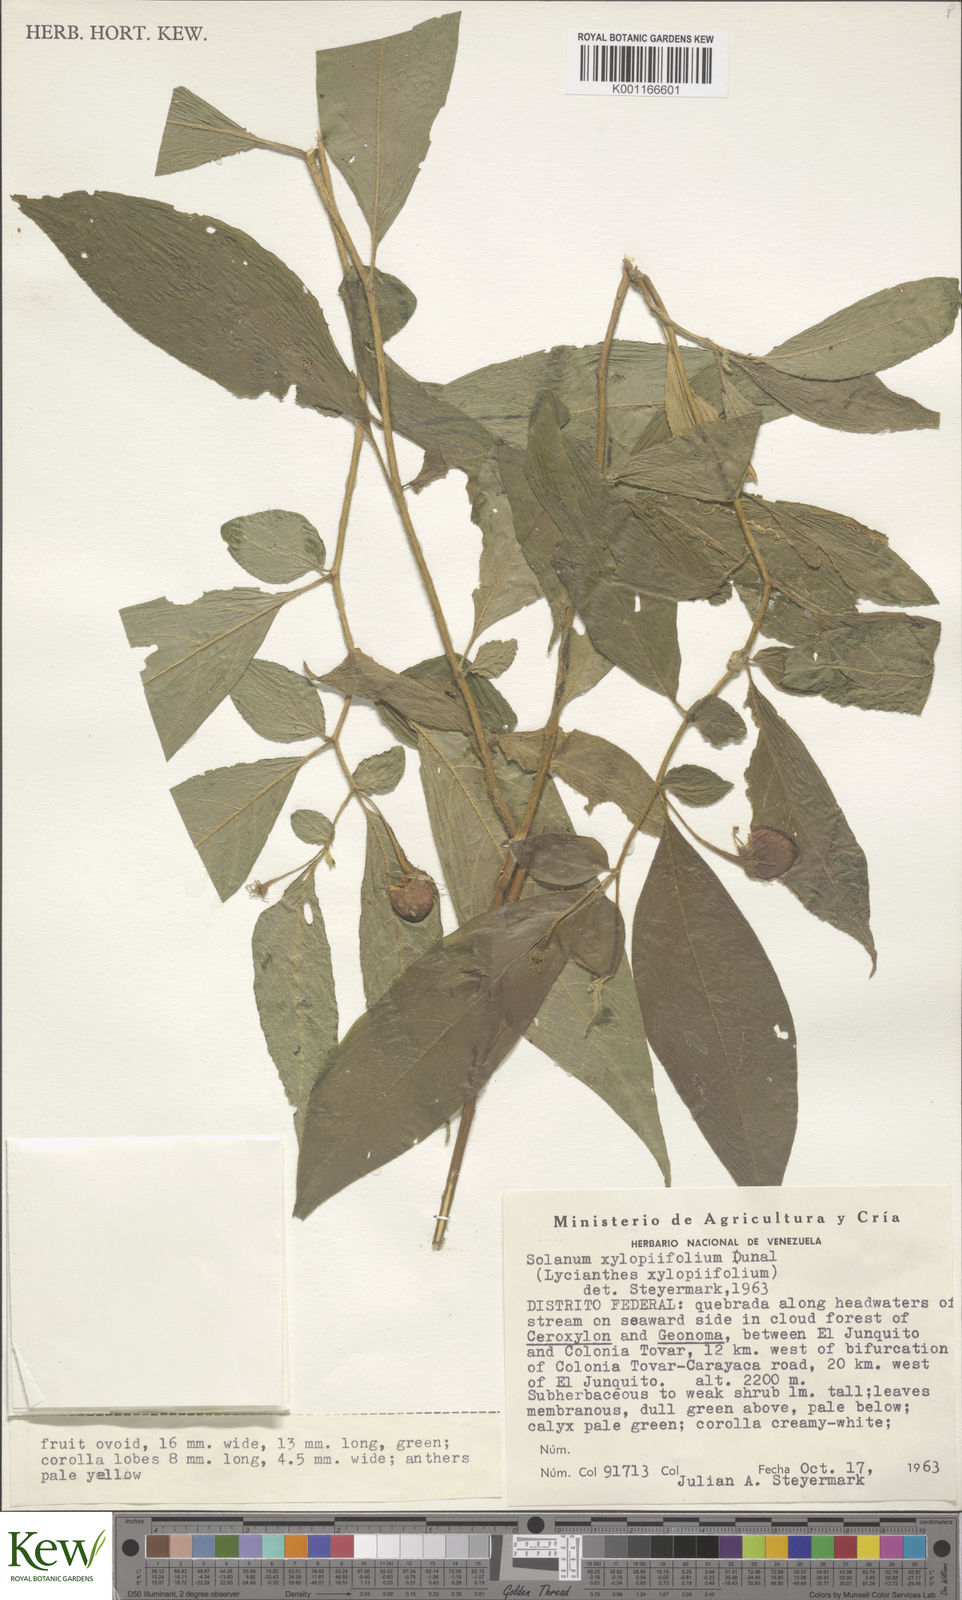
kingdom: Plantae
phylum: Tracheophyta
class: Magnoliopsida
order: Solanales
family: Solanaceae
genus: Lycianthes
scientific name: Lycianthes acutifolia
